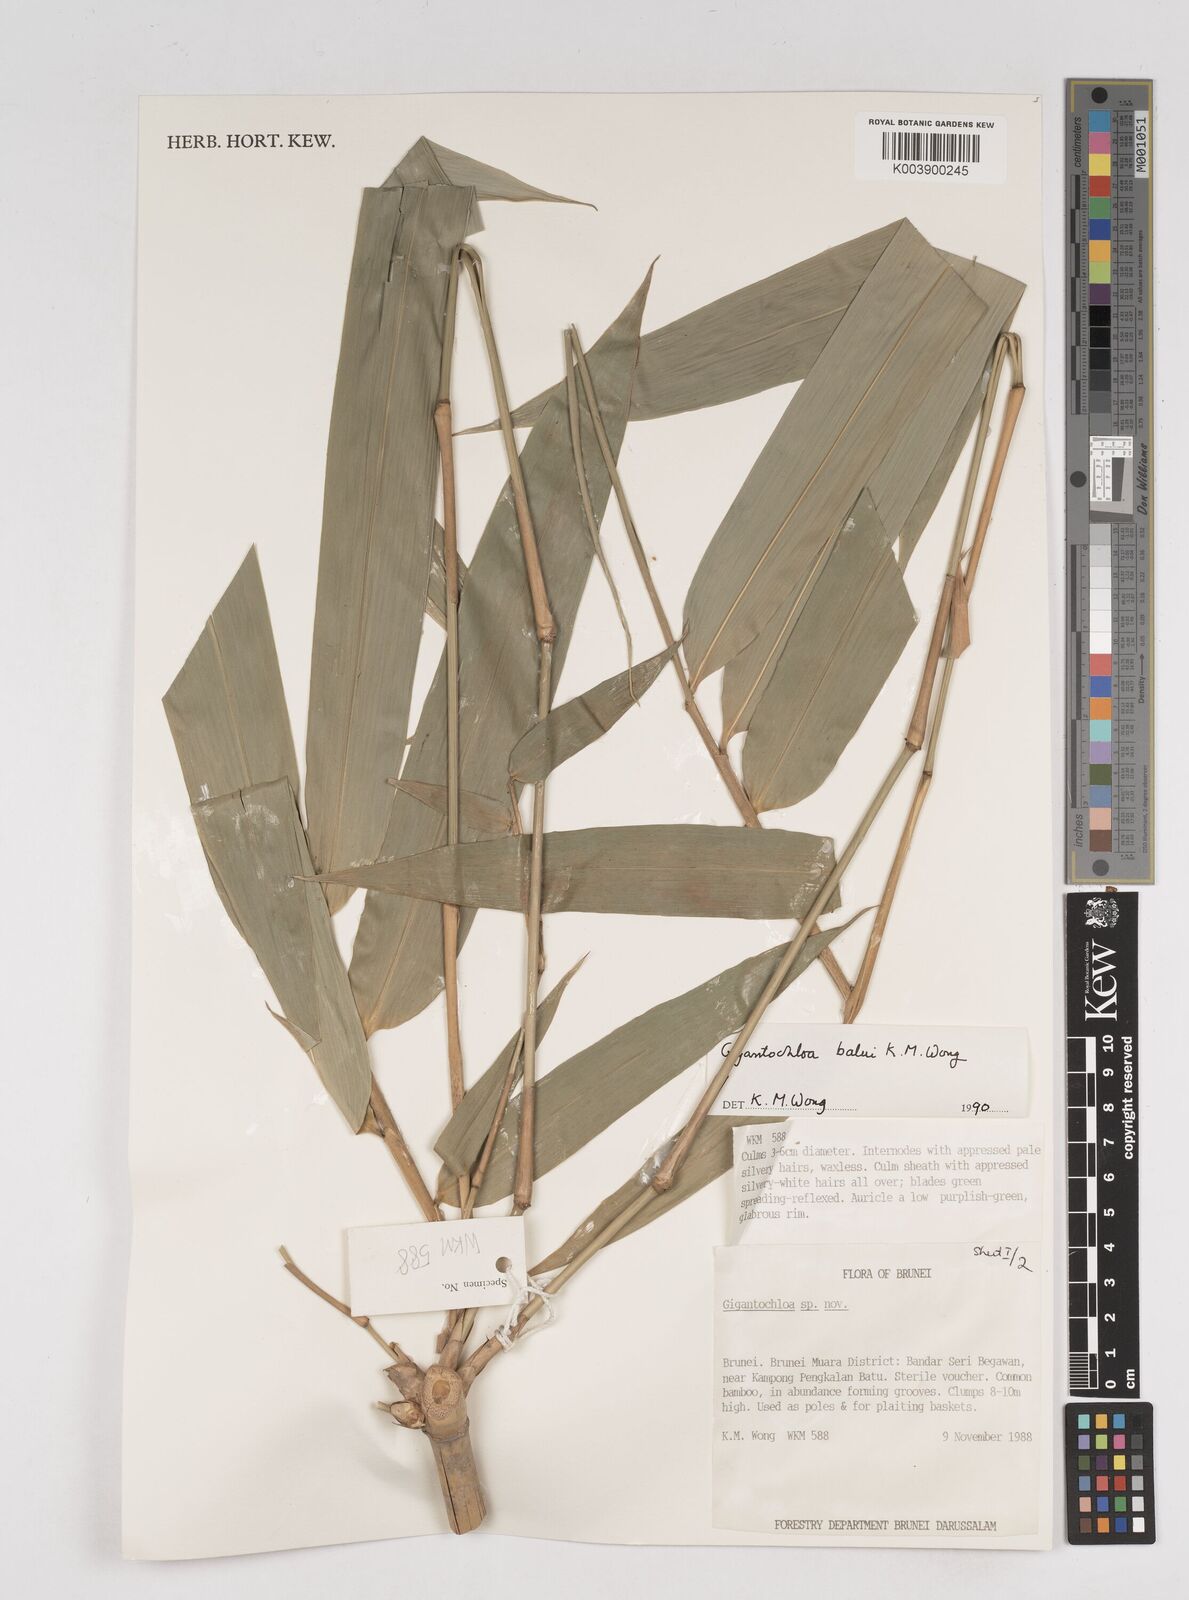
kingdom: Plantae
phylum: Tracheophyta
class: Liliopsida
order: Poales
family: Poaceae
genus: Gigantochloa
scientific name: Gigantochloa balui
